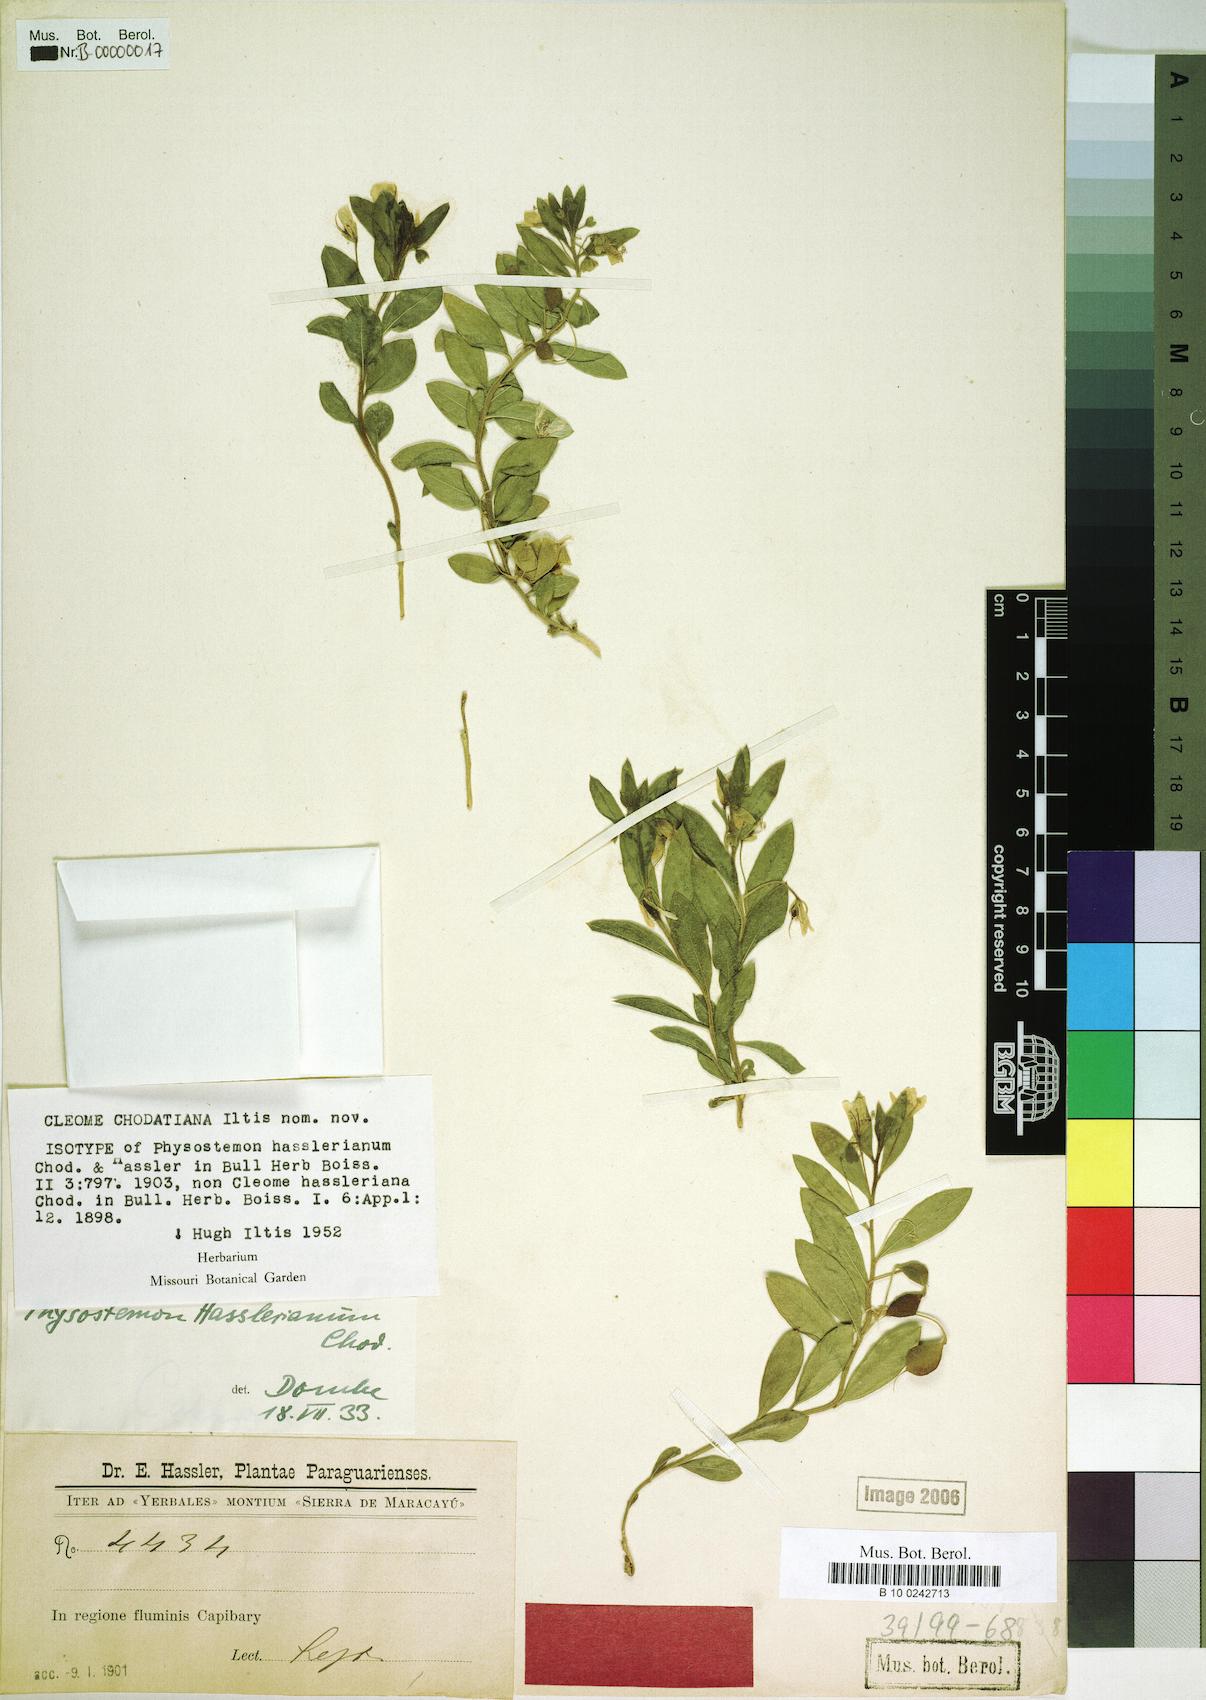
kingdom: Plantae
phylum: Tracheophyta
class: Magnoliopsida
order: Brassicales
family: Cleomaceae
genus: Physostemon
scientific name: Physostemon hasslerianus
